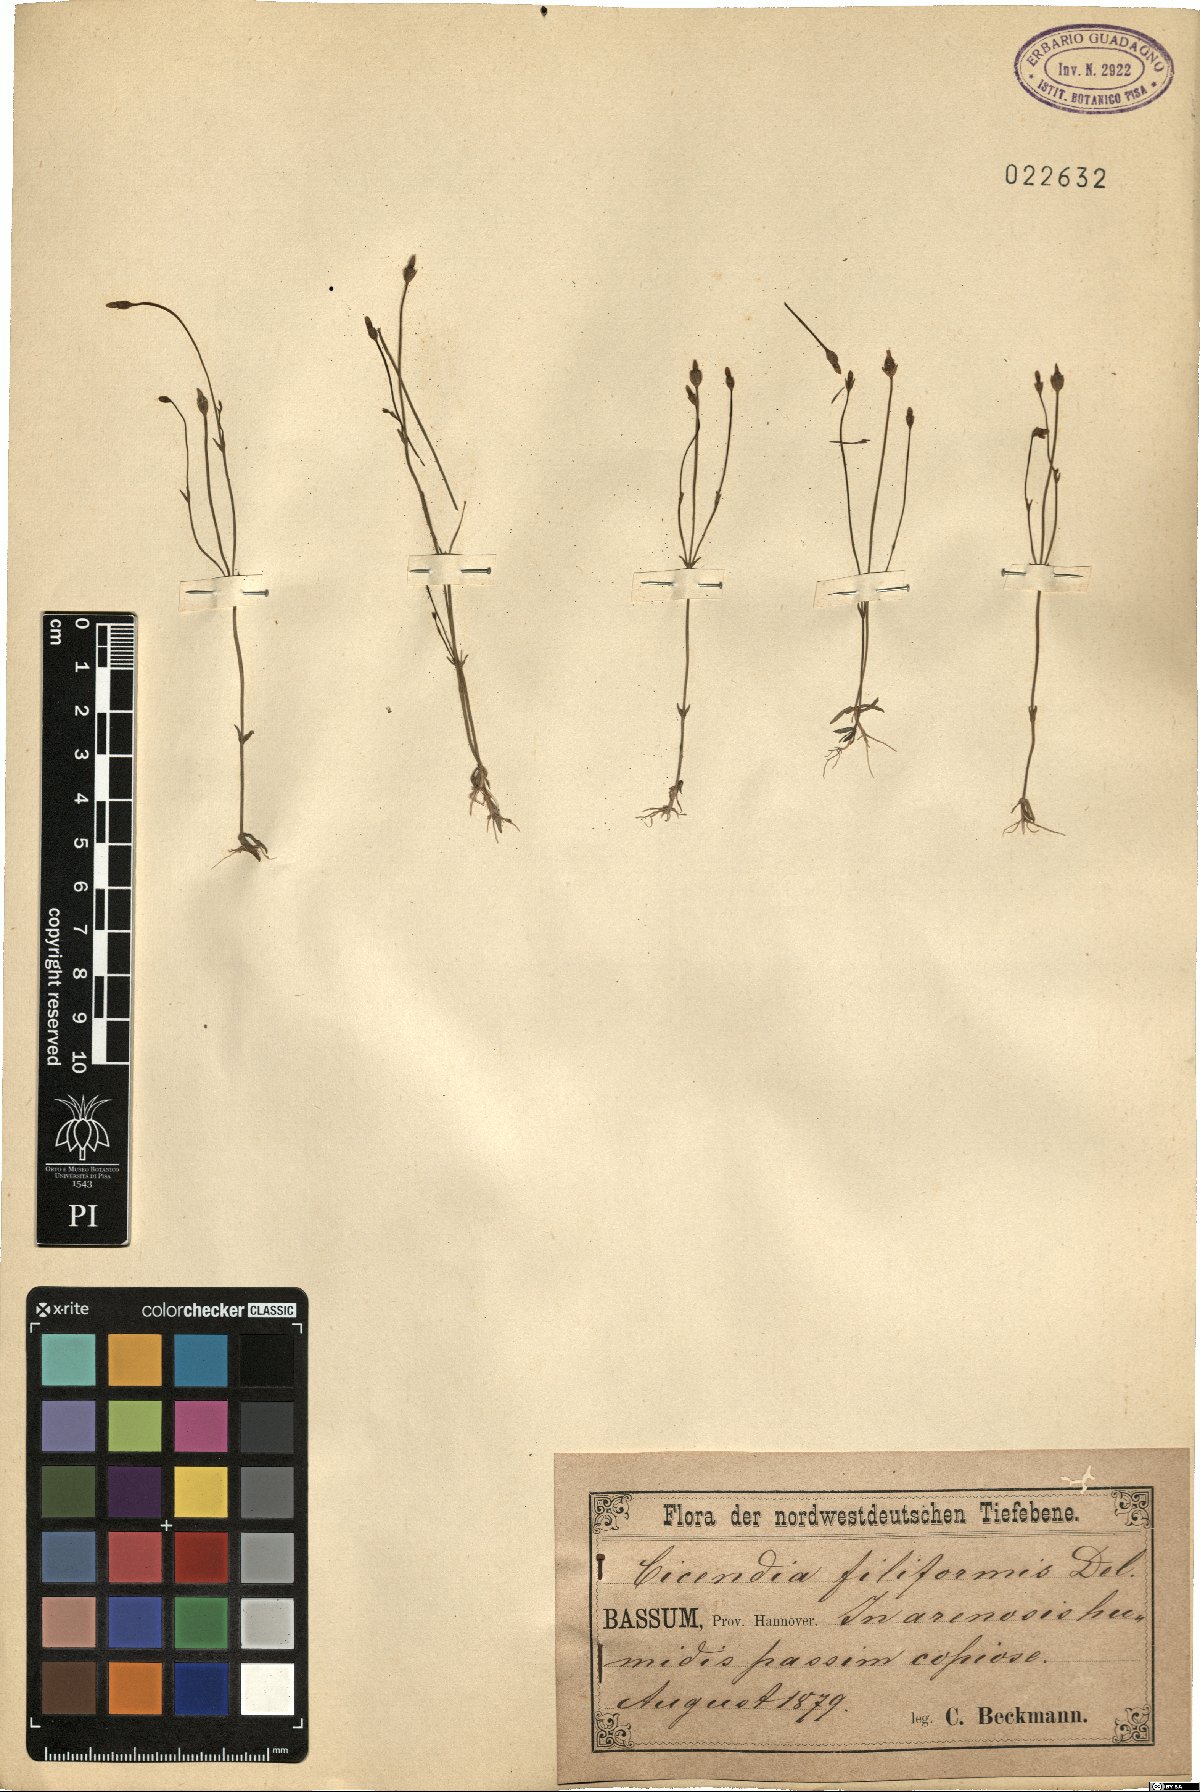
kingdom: Plantae
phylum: Tracheophyta
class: Magnoliopsida
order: Gentianales
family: Gentianaceae
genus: Cicendia
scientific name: Cicendia filiformis
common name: Yellow centaury
